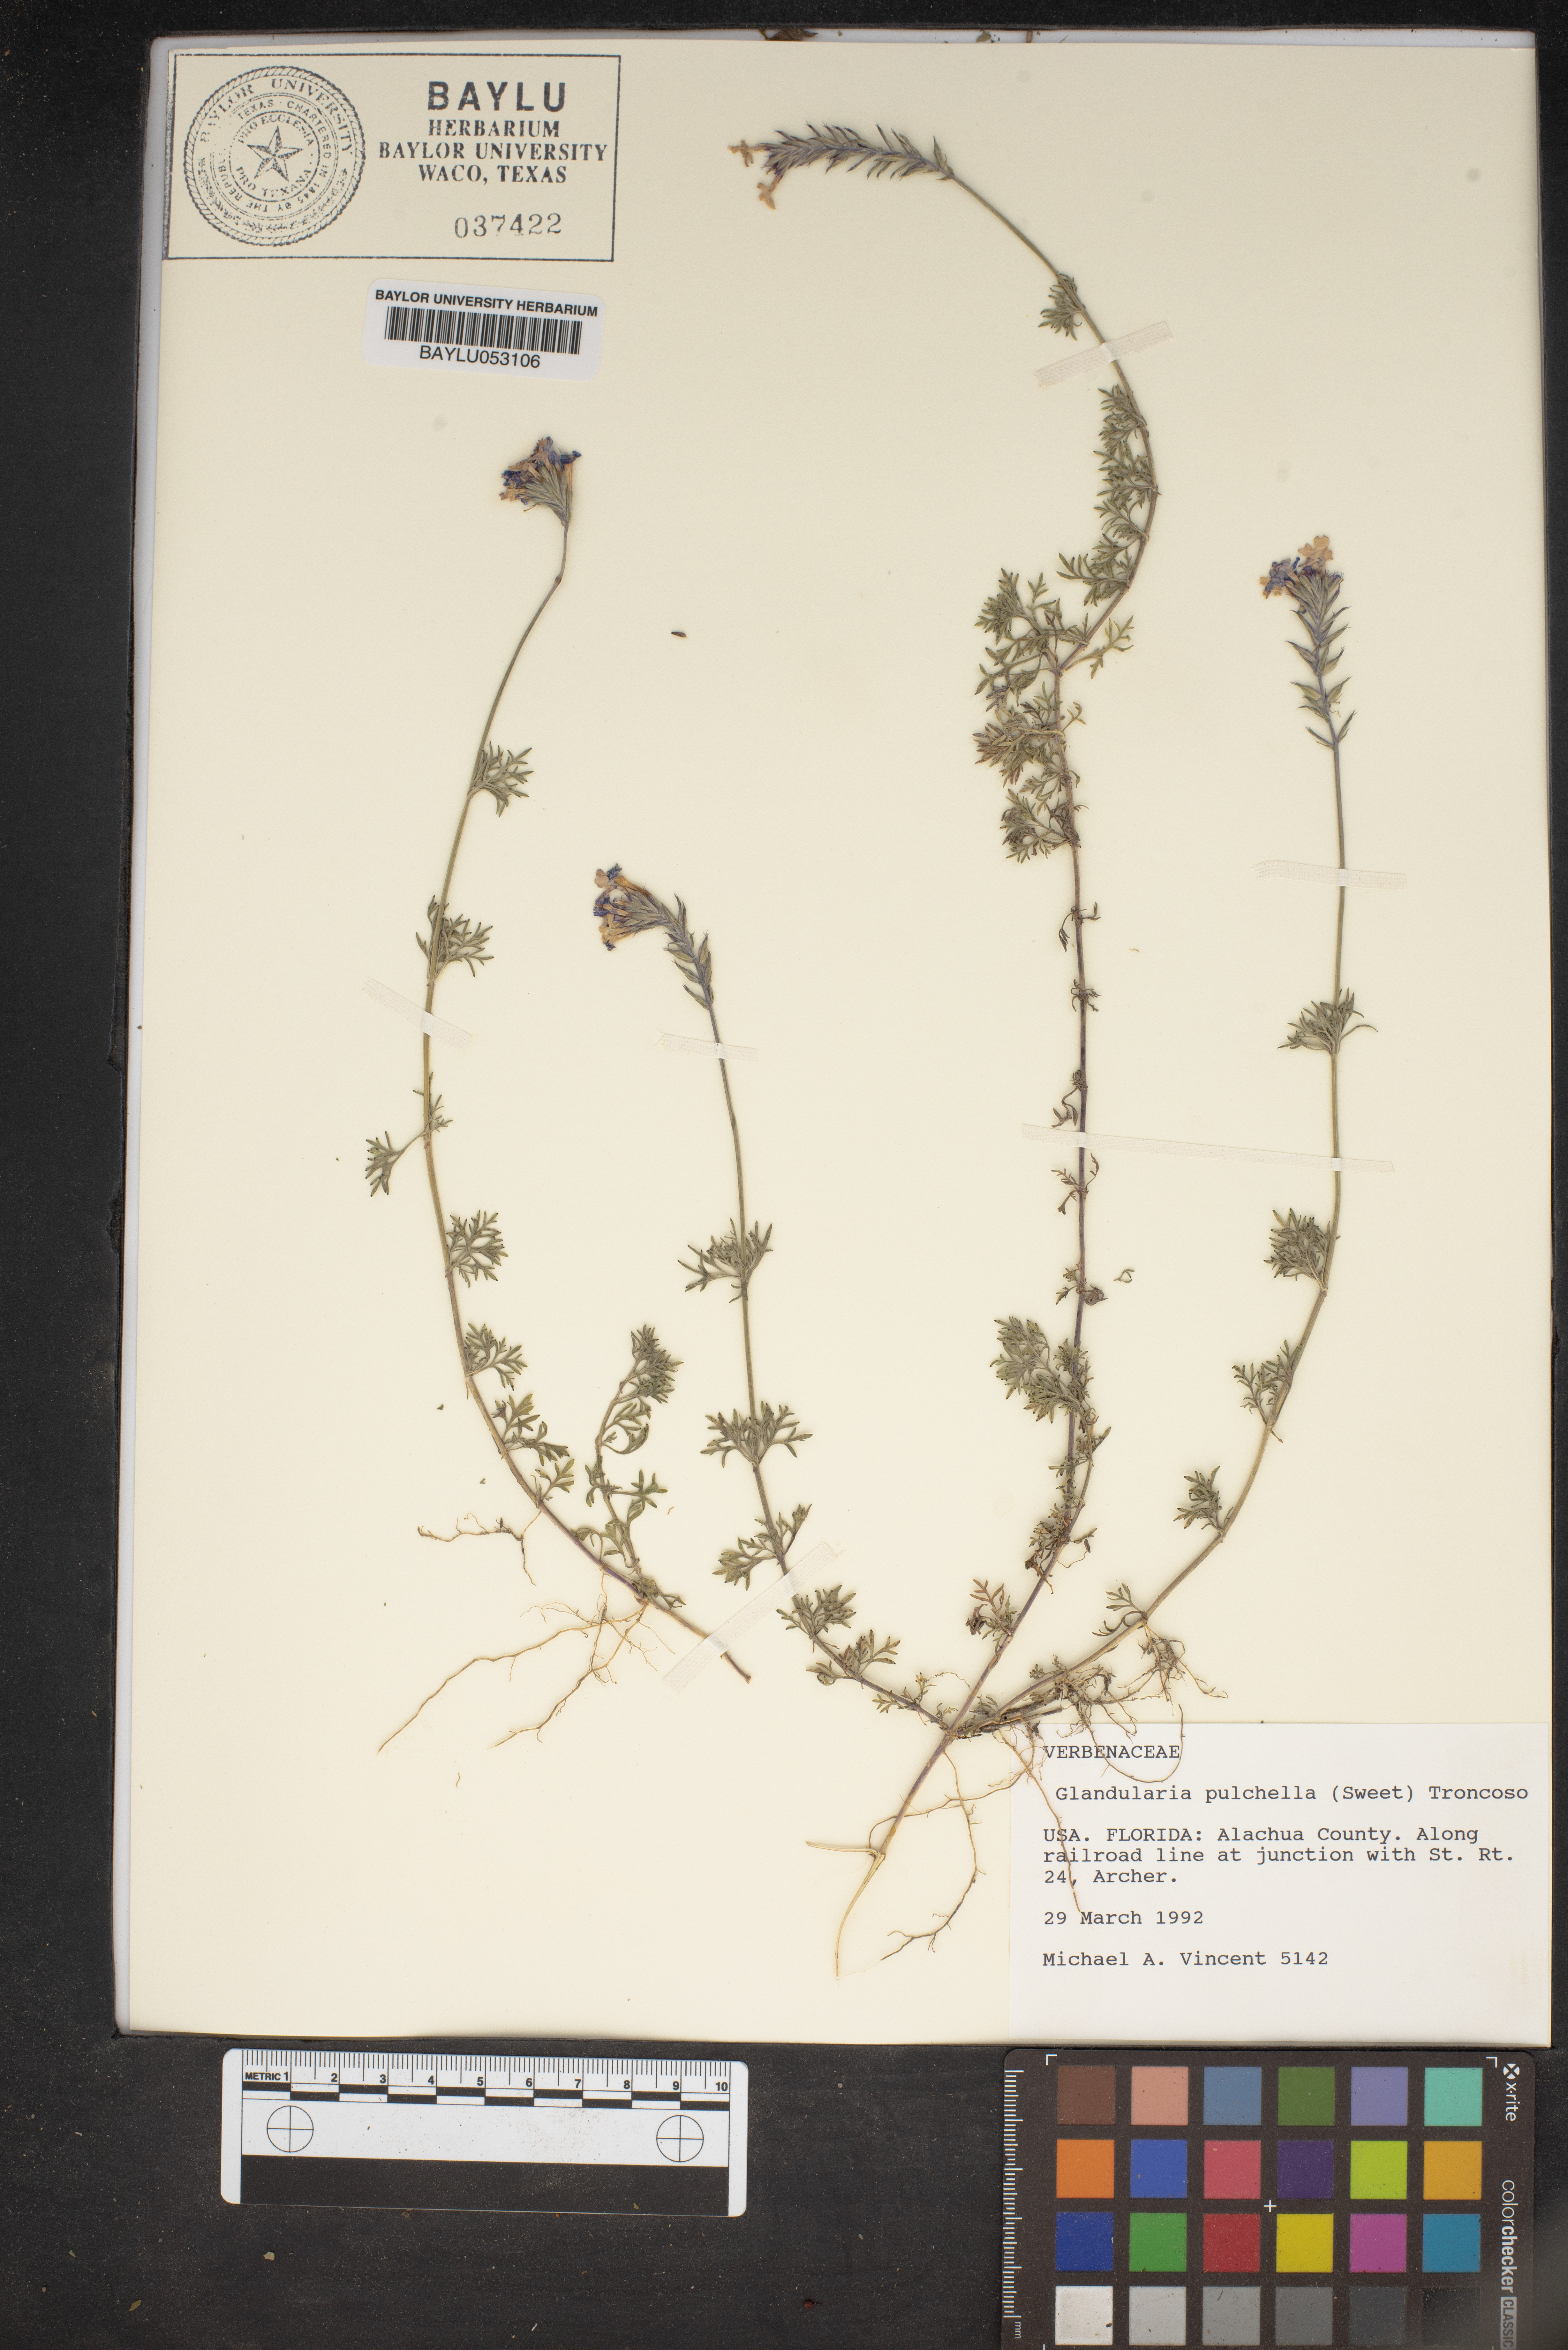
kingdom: Plantae
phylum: Tracheophyta
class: Magnoliopsida
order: Lamiales
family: Verbenaceae
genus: Verbena
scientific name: Verbena tenera
